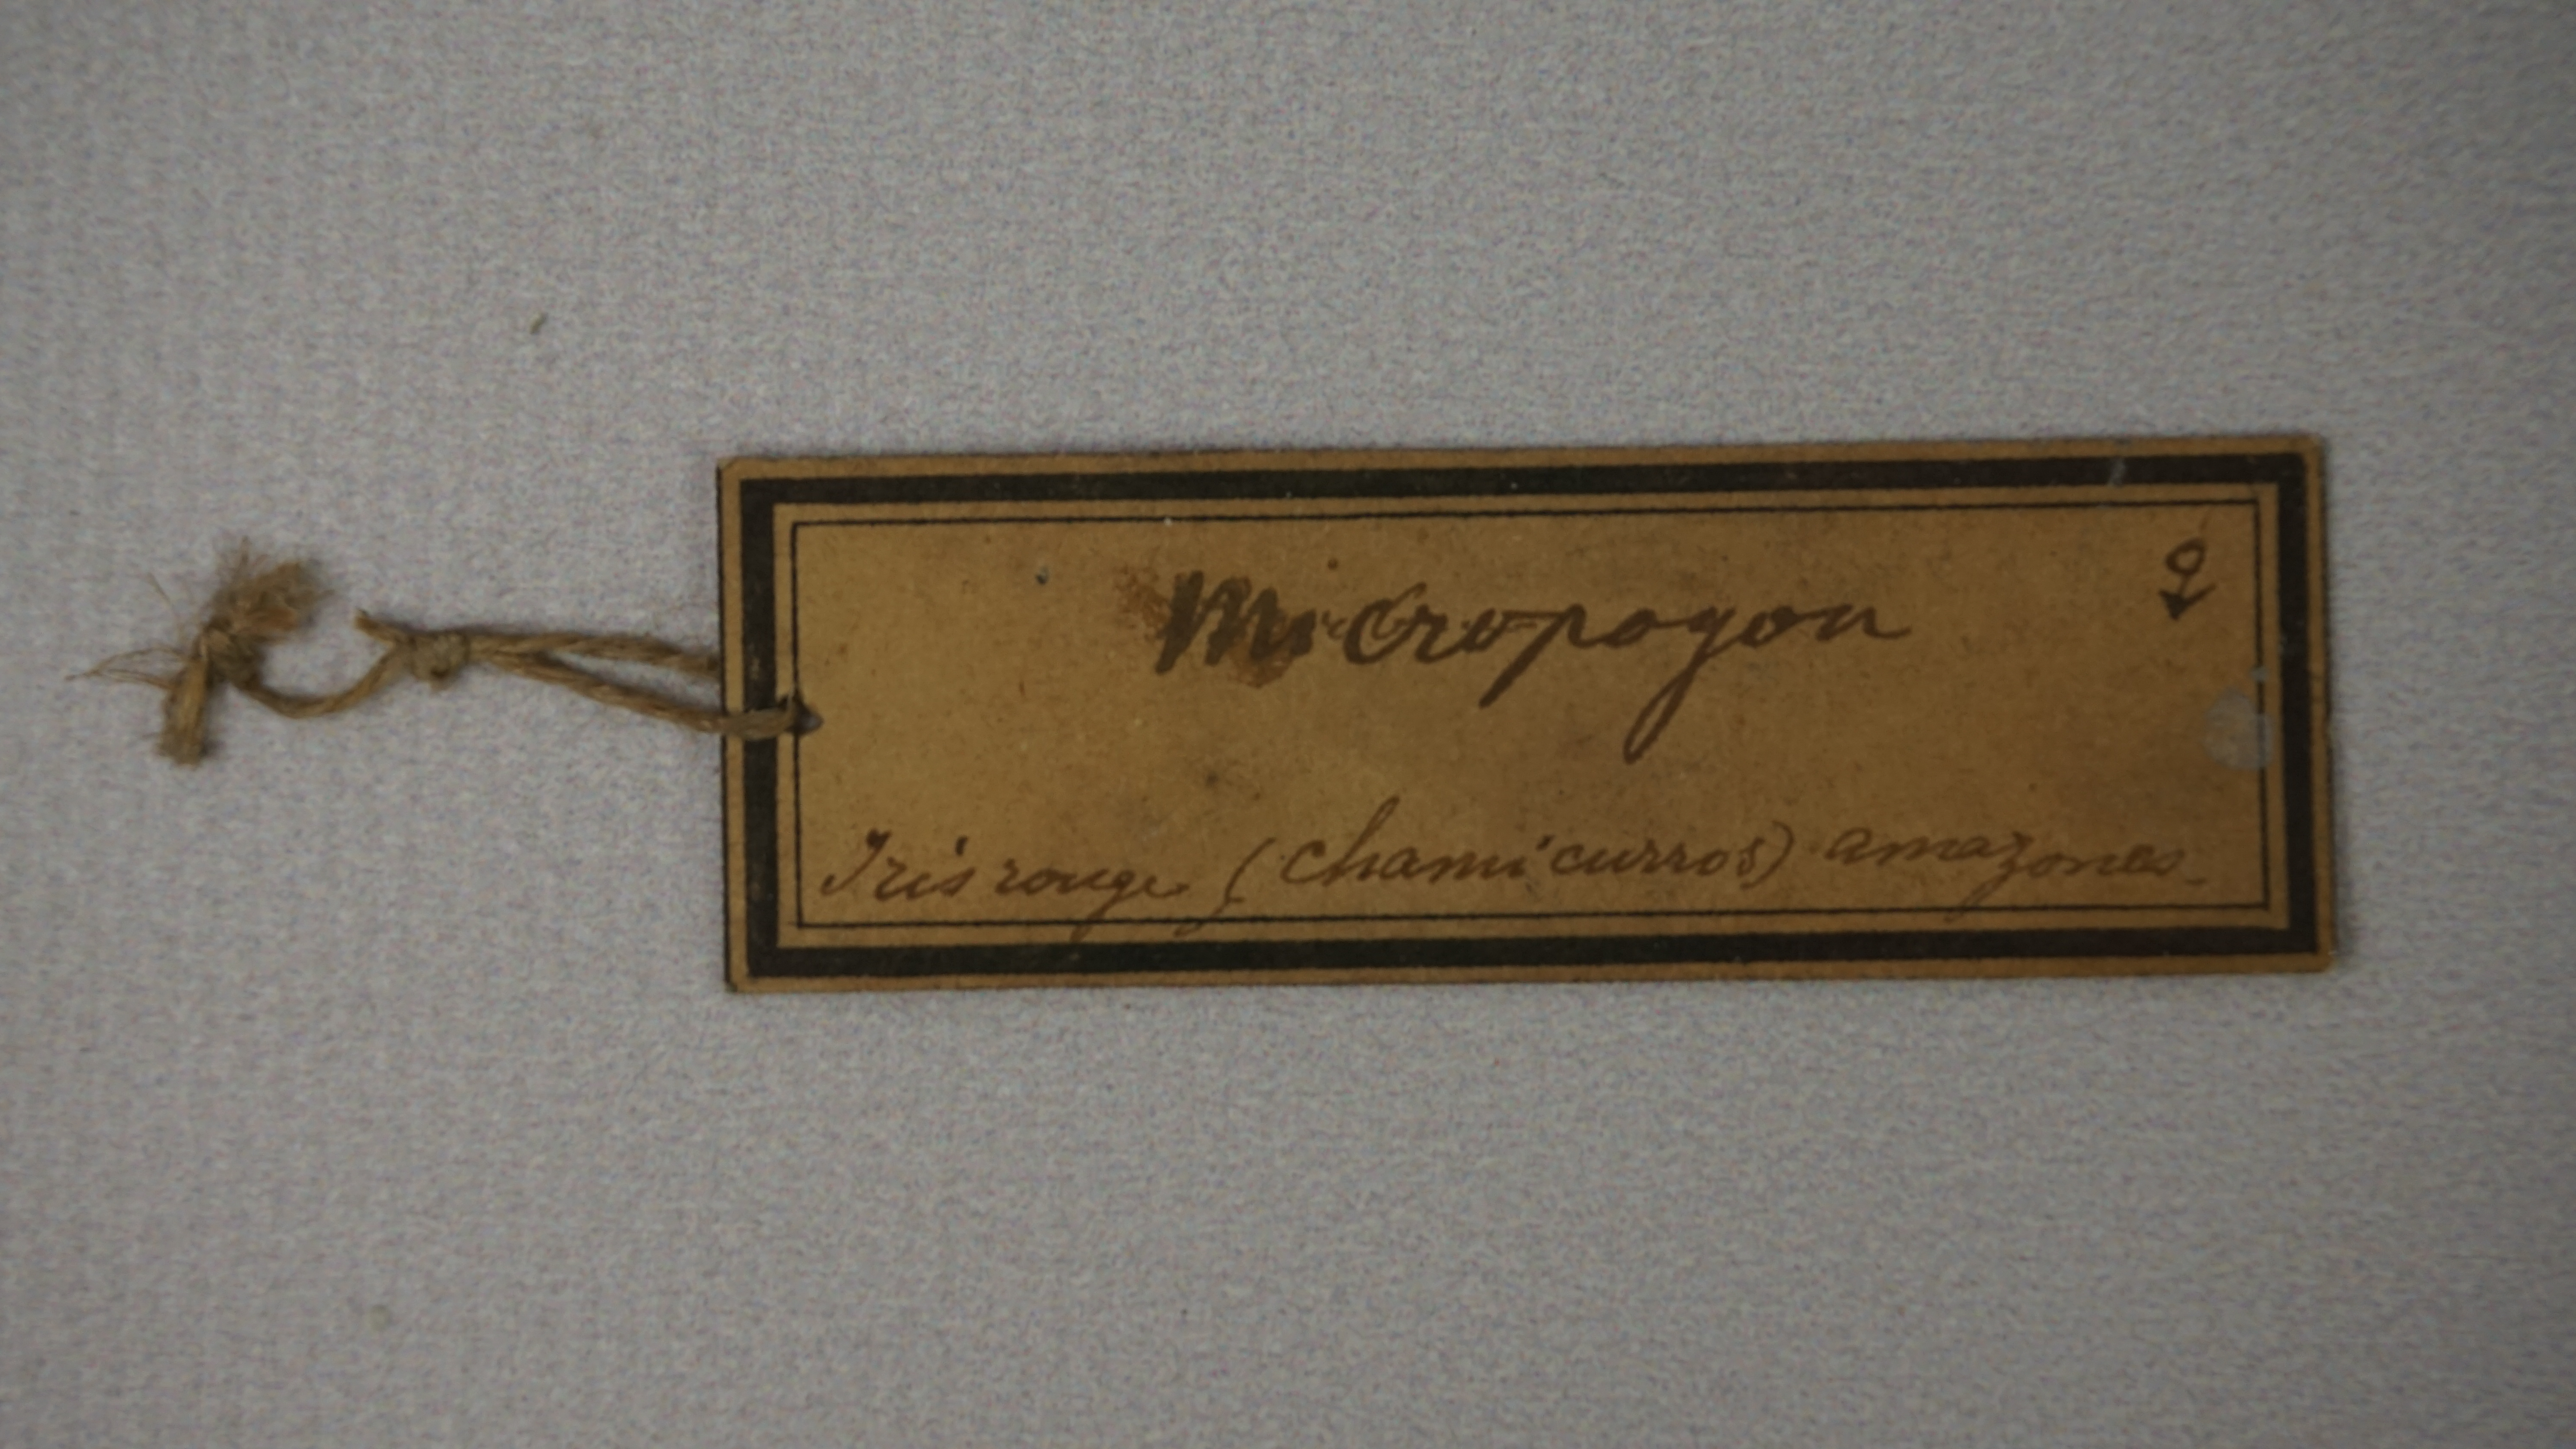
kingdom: Animalia
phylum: Chordata
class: Aves
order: Piciformes
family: Capitonidae
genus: Capito
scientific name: Capito auratus
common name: Gilded barbet
